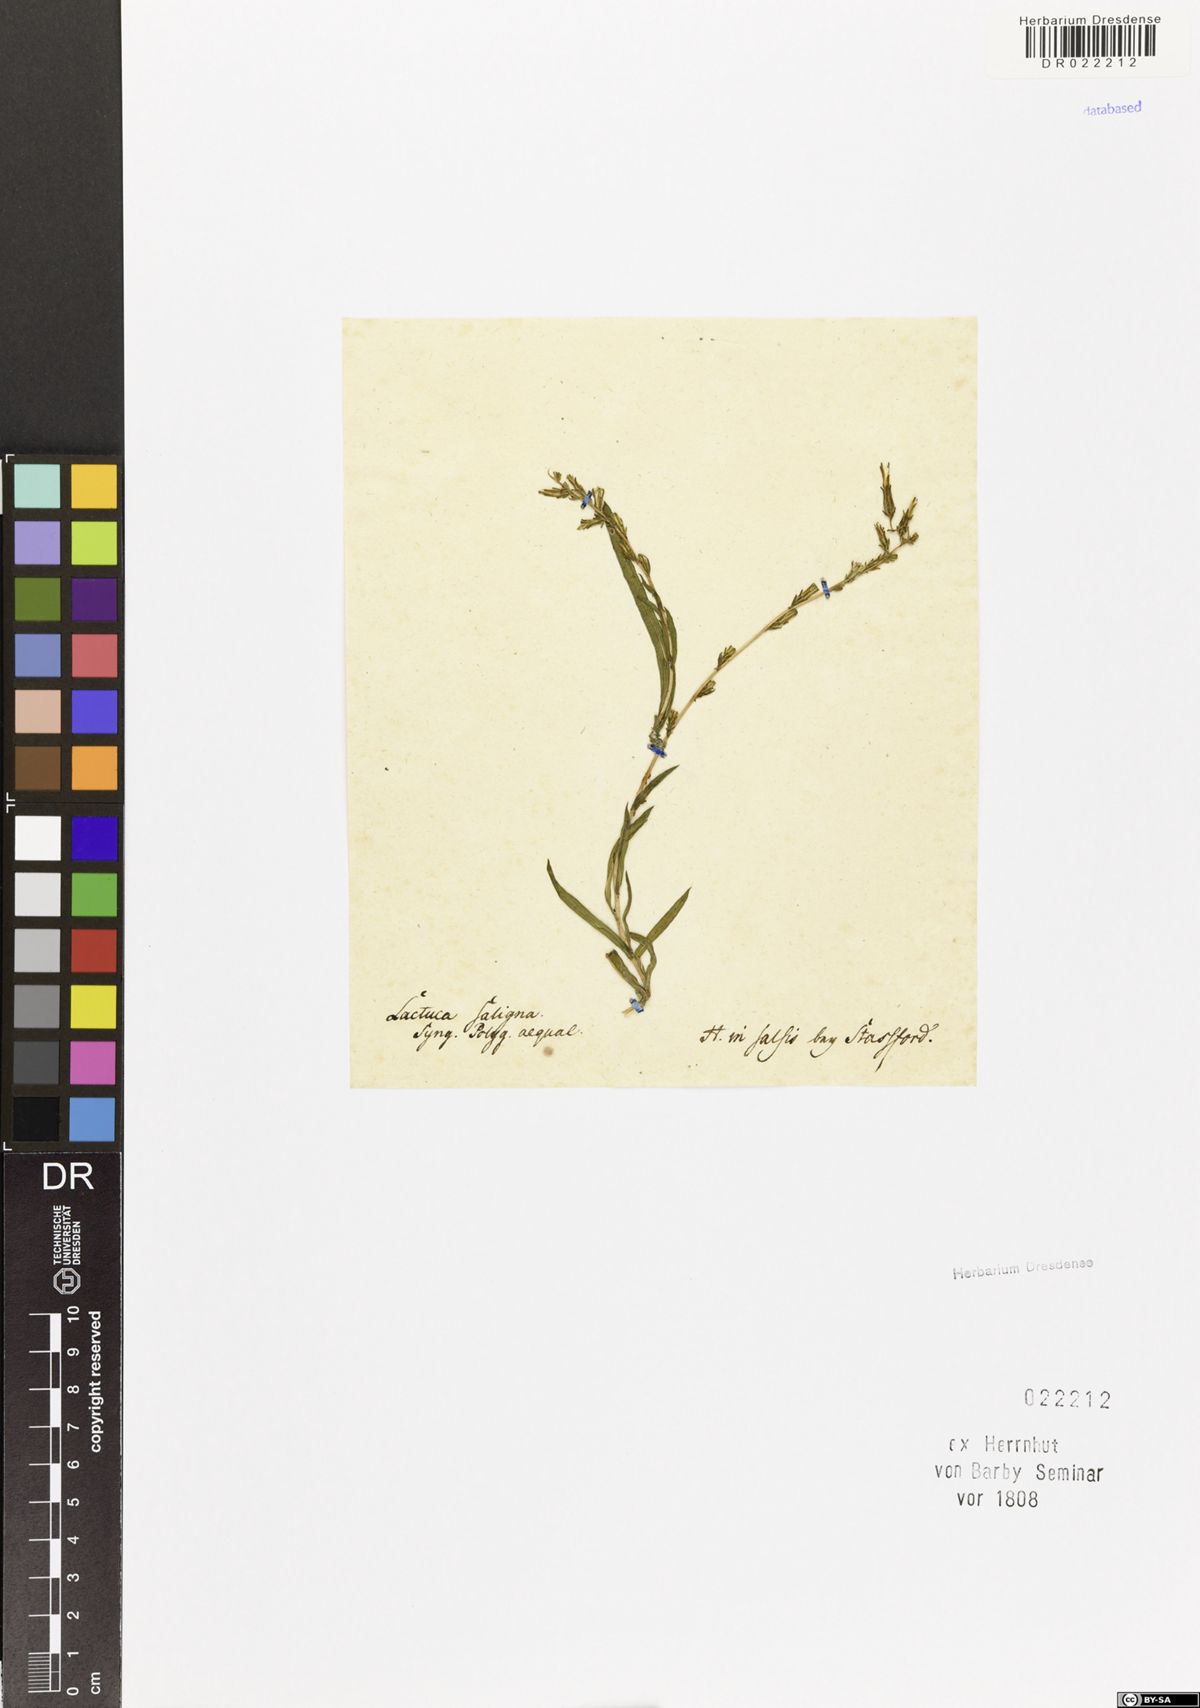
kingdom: Plantae
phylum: Tracheophyta
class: Magnoliopsida
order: Asterales
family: Asteraceae
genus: Lactuca
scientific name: Lactuca saligna
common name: Wild lettuce
